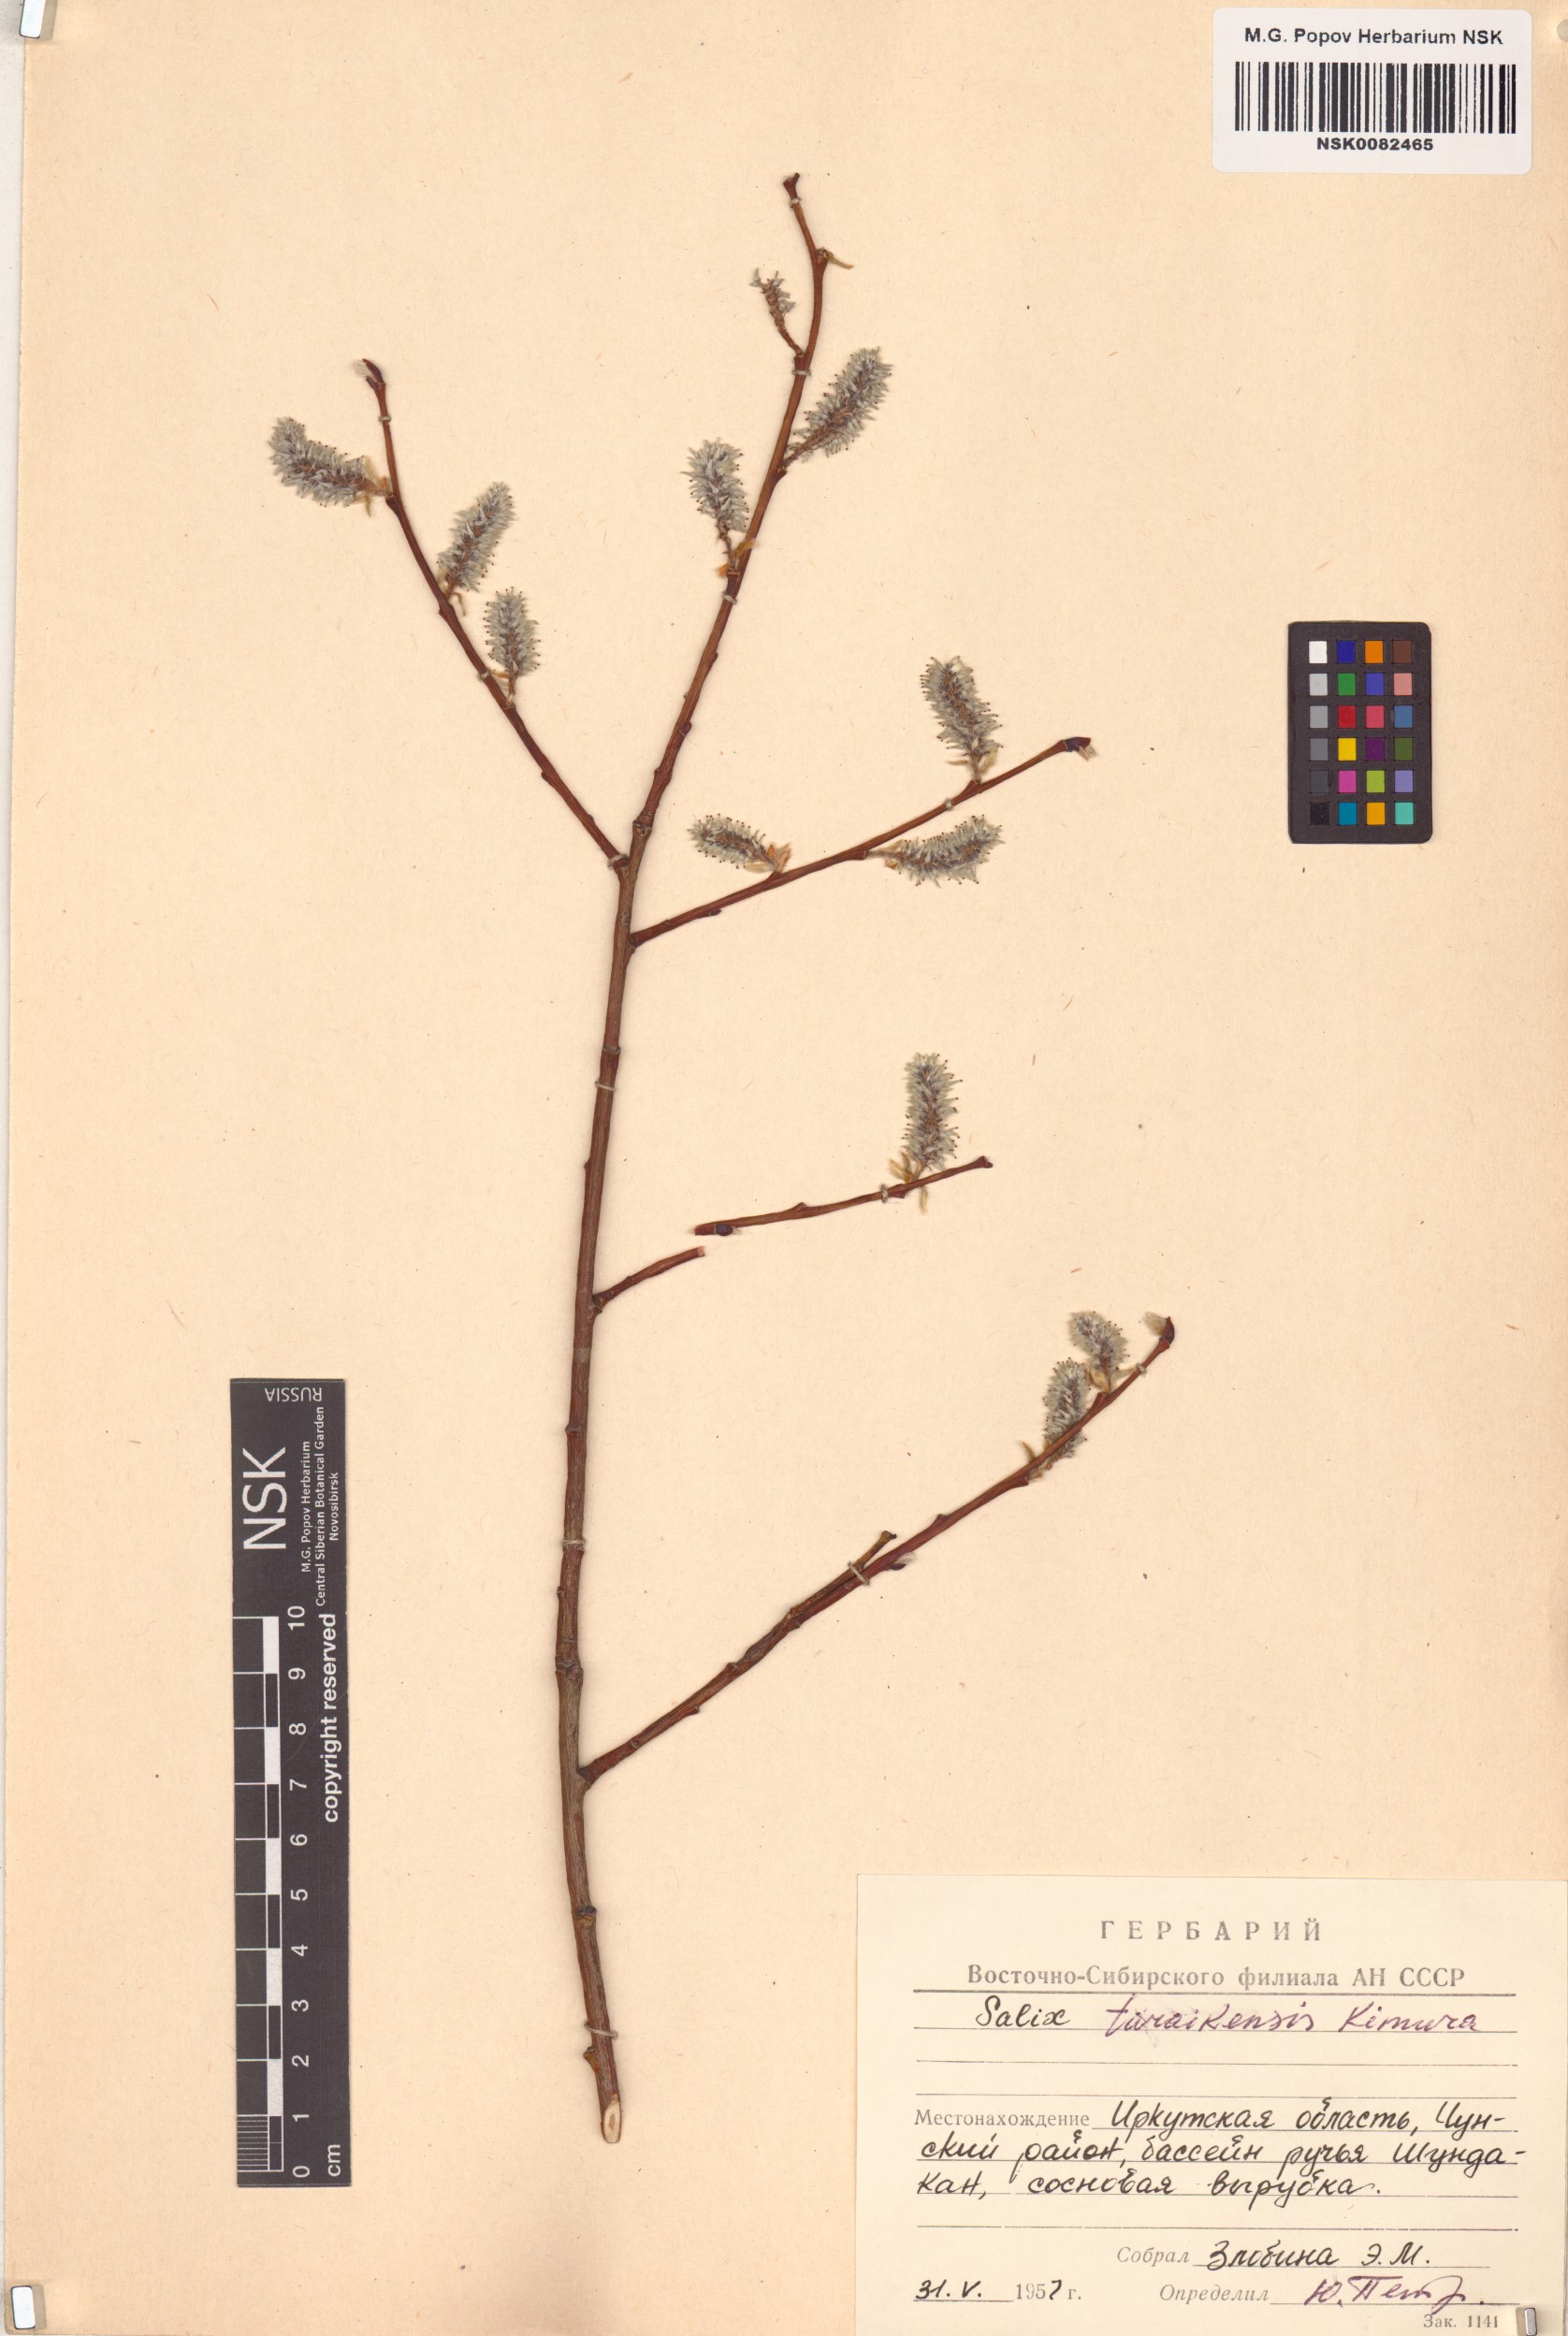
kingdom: Plantae
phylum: Tracheophyta
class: Magnoliopsida
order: Malpighiales
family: Salicaceae
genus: Salix
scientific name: Salix taraikensis
